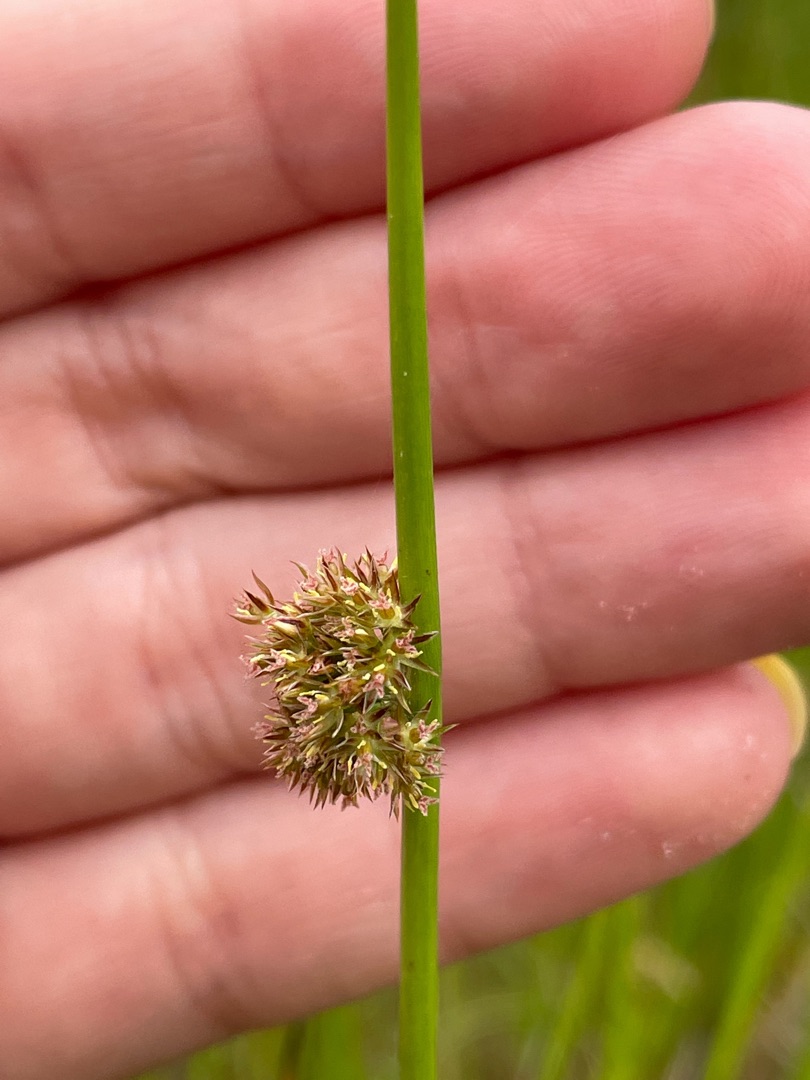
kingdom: Plantae
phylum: Tracheophyta
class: Liliopsida
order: Poales
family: Juncaceae
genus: Juncus
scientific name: Juncus effusus
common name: Lyse-siv
